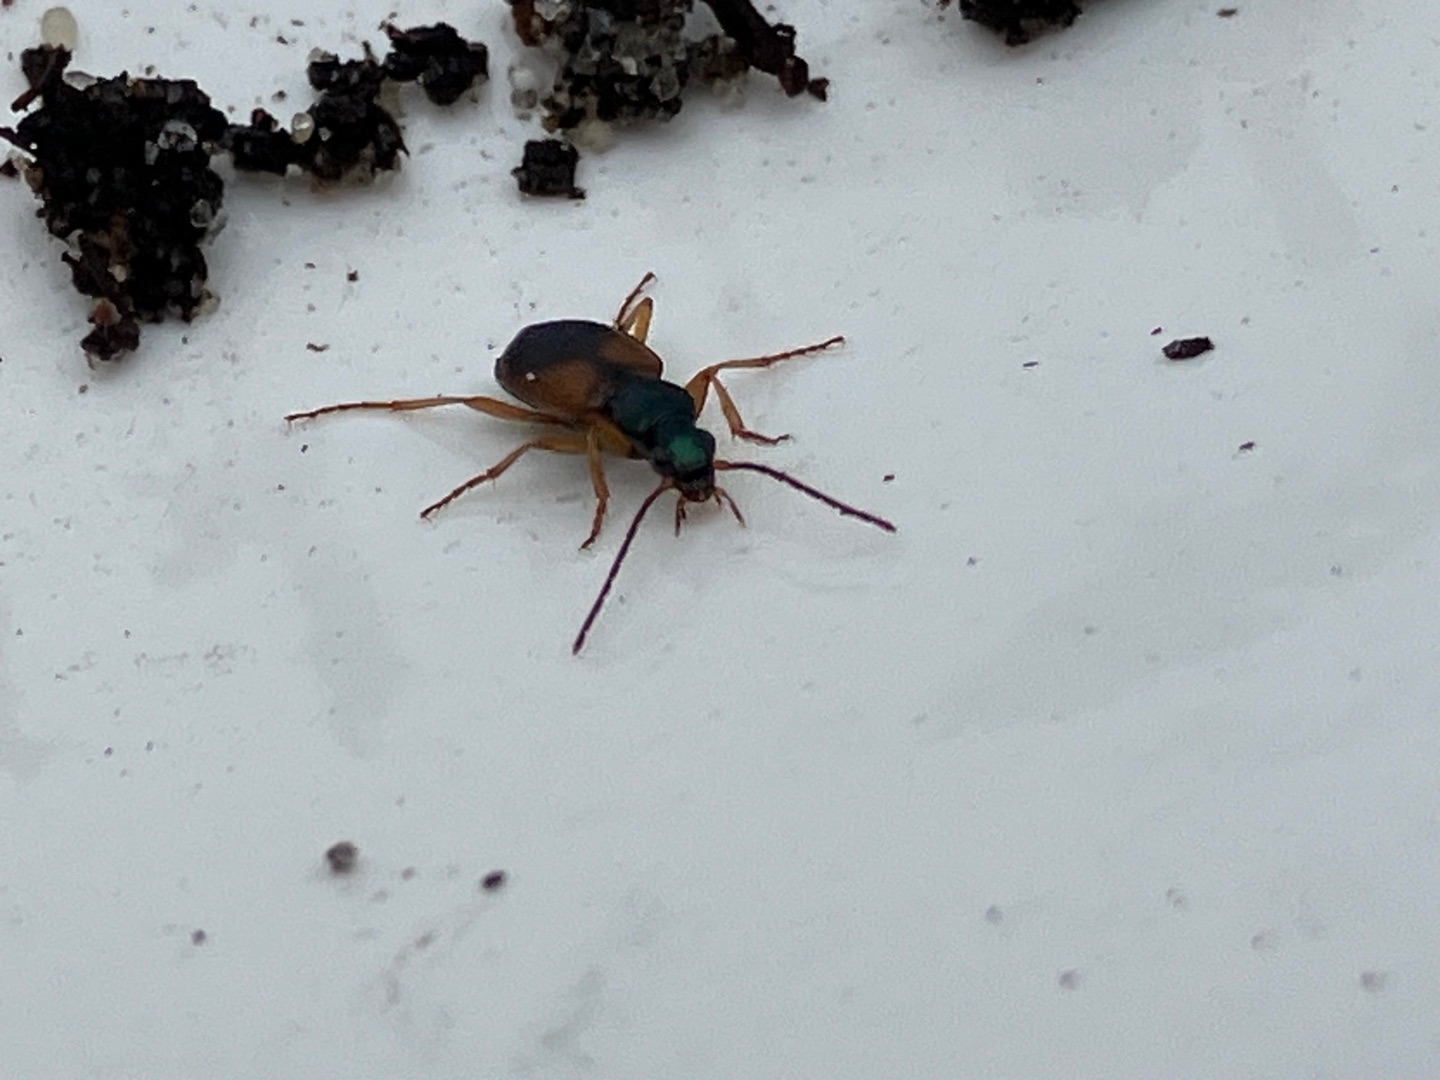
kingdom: Animalia
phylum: Arthropoda
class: Insecta
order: Coleoptera
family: Carabidae
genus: Anchomenus
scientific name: Anchomenus dorsalis
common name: Spraglet kvikløber
